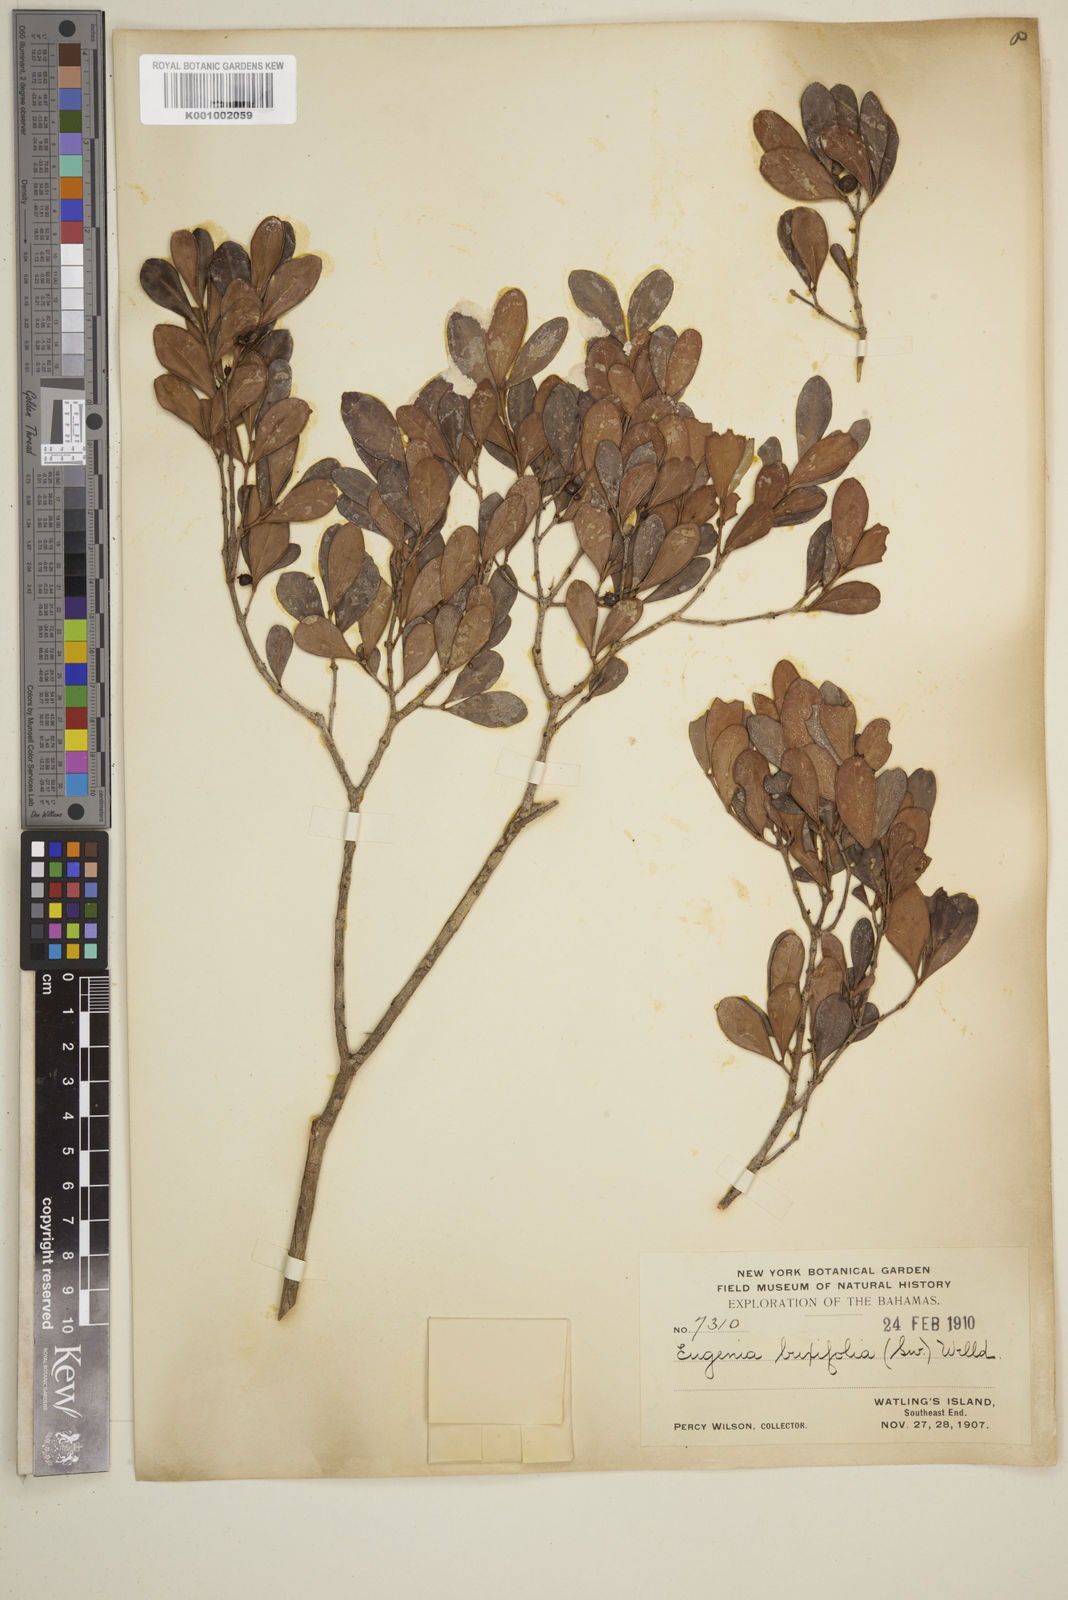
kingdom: Plantae
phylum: Tracheophyta
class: Magnoliopsida
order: Myrtales
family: Myrtaceae
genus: Eugenia
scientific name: Eugenia buxifolia
